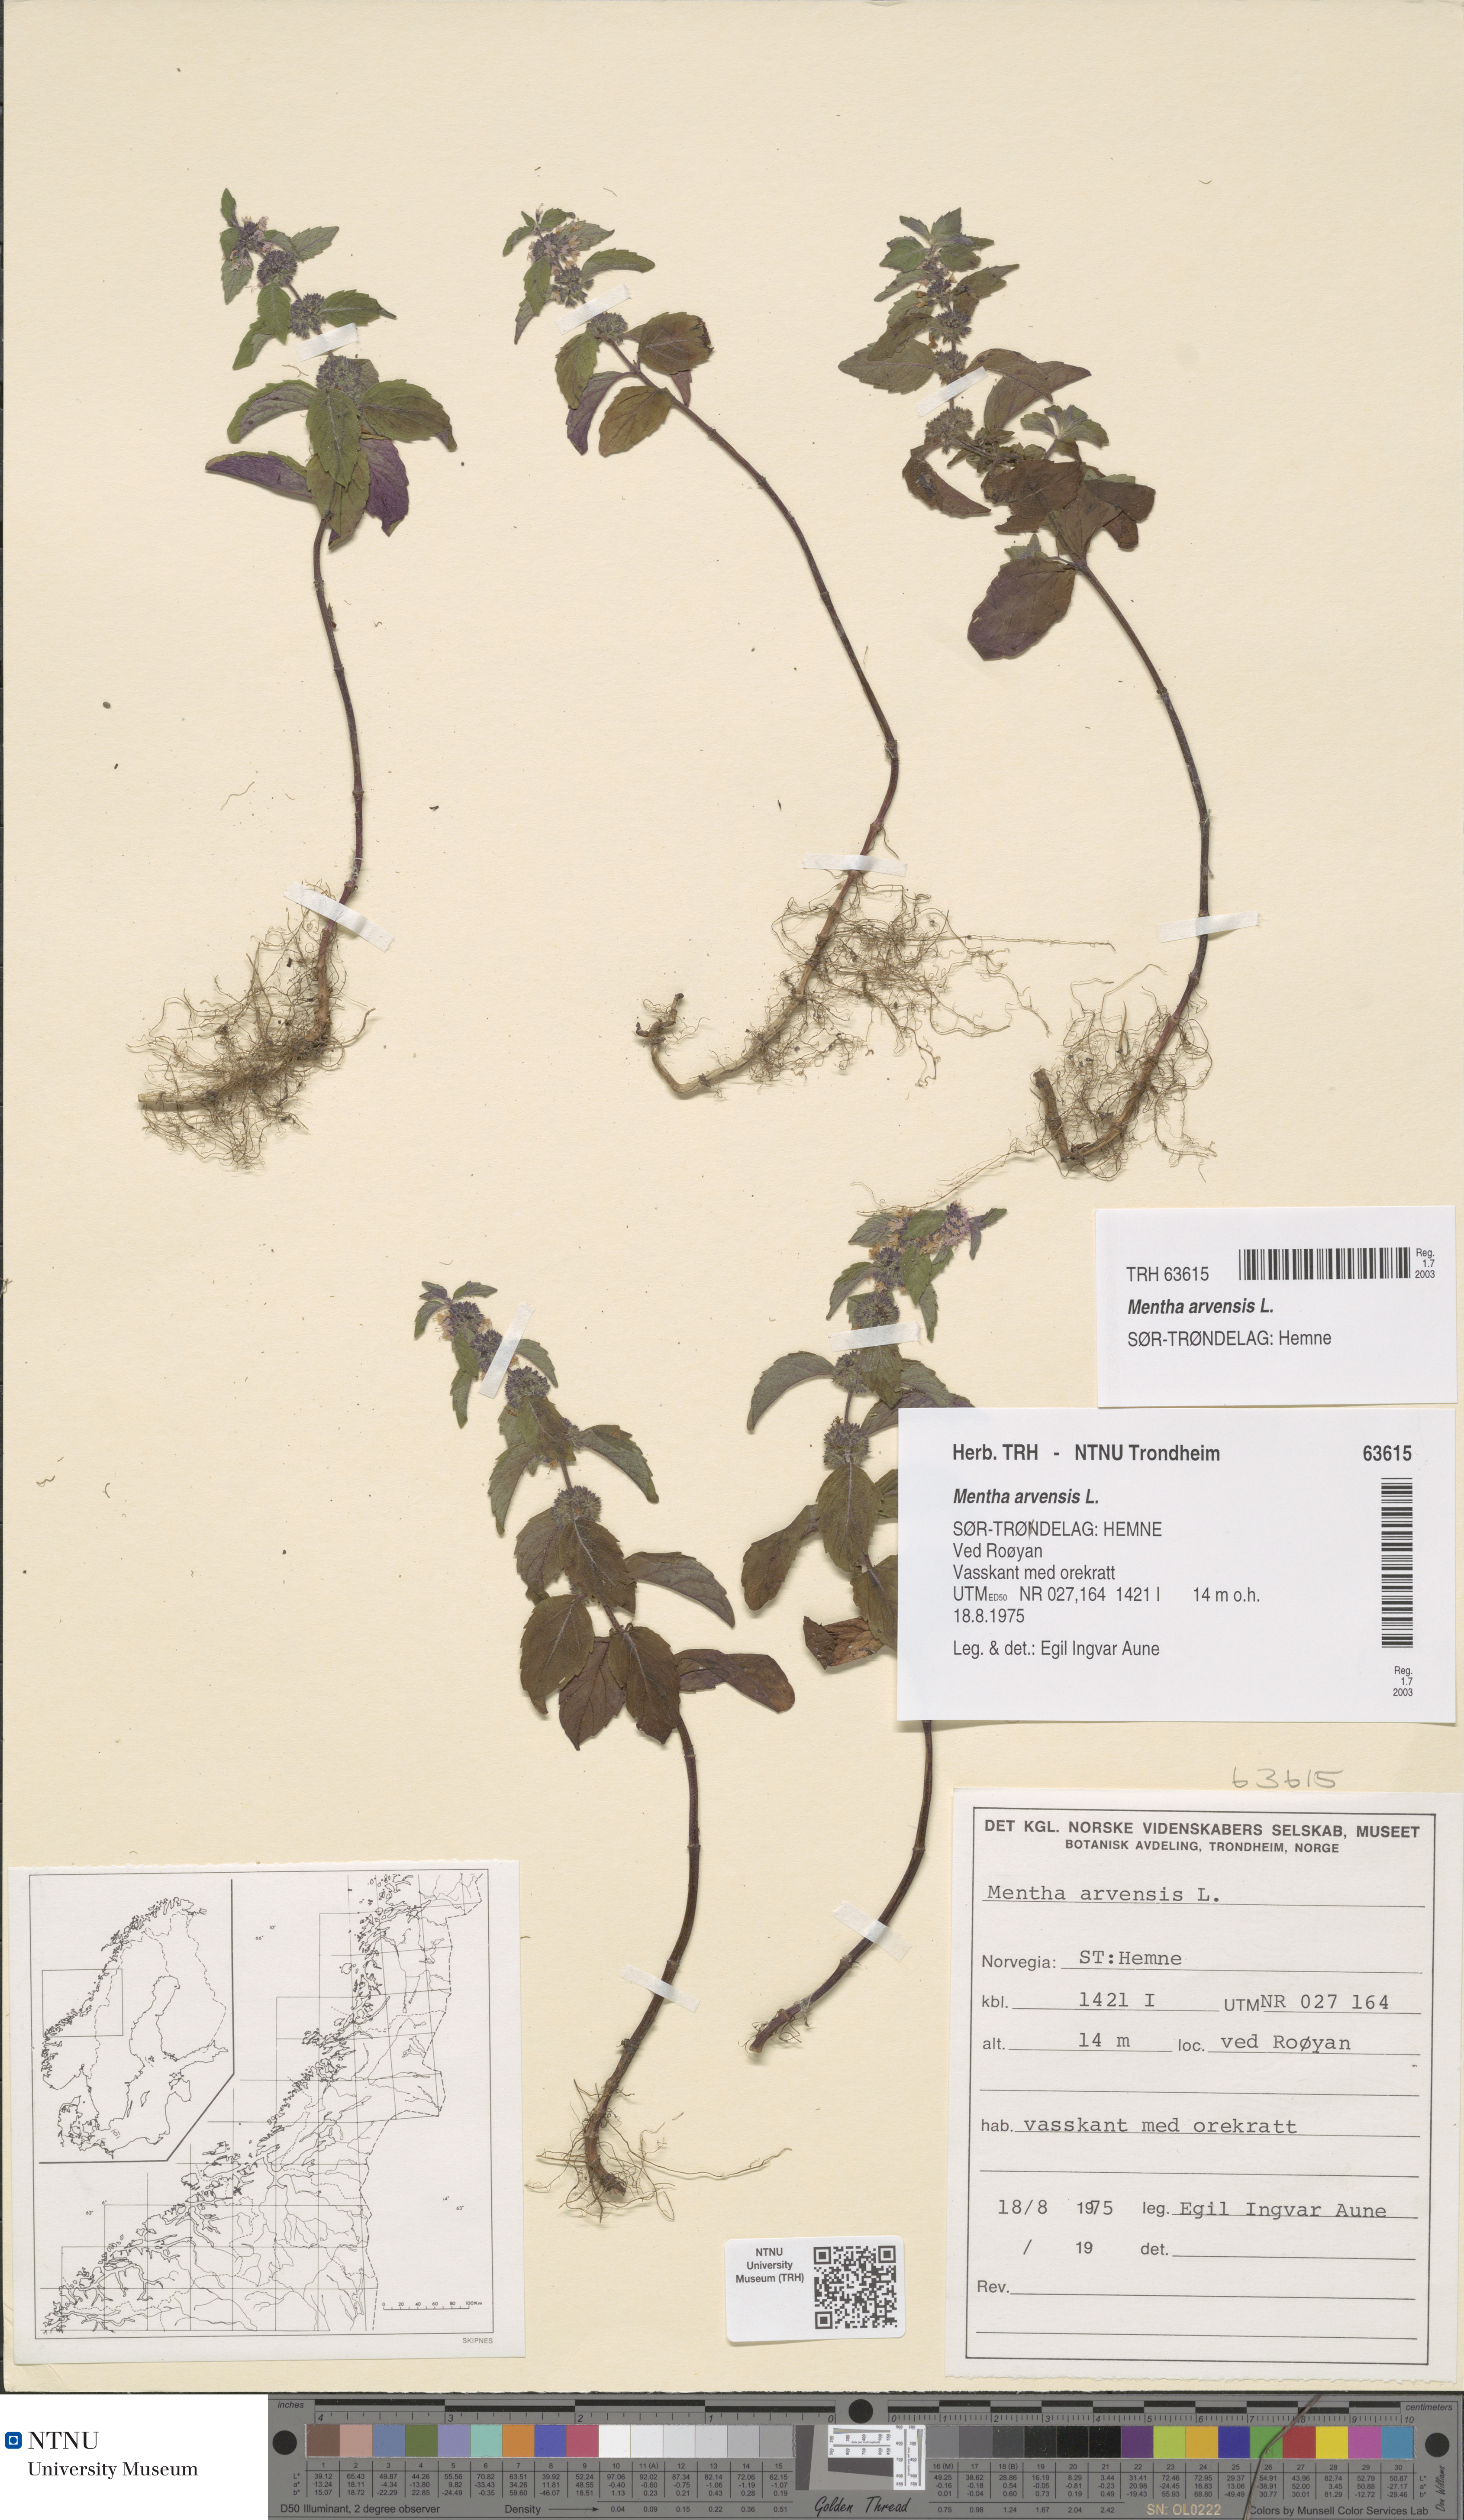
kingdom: Plantae
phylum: Tracheophyta
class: Magnoliopsida
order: Lamiales
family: Lamiaceae
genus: Mentha
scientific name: Mentha arvensis
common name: Corn mint
